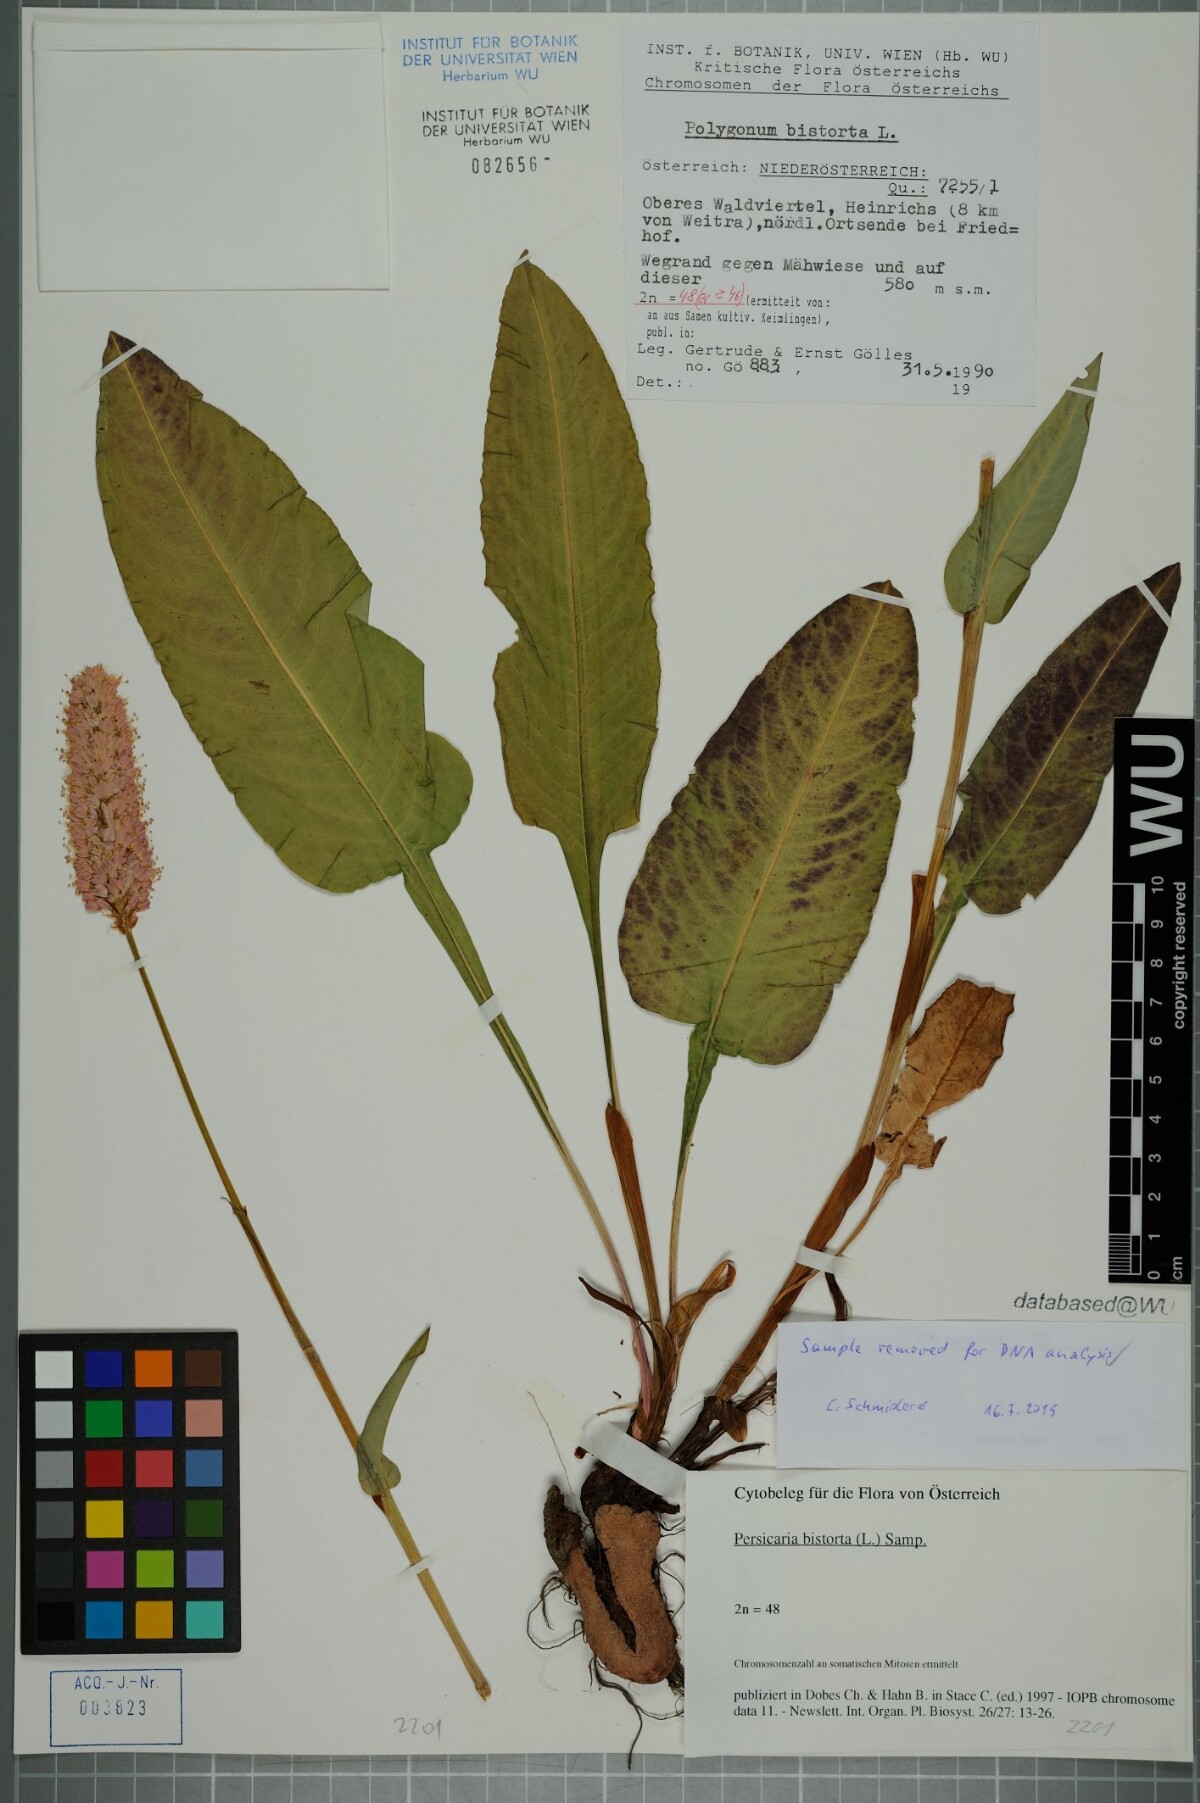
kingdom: Plantae
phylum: Tracheophyta
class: Magnoliopsida
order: Caryophyllales
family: Polygonaceae
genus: Bistorta
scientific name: Bistorta officinalis
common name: Common bistort
